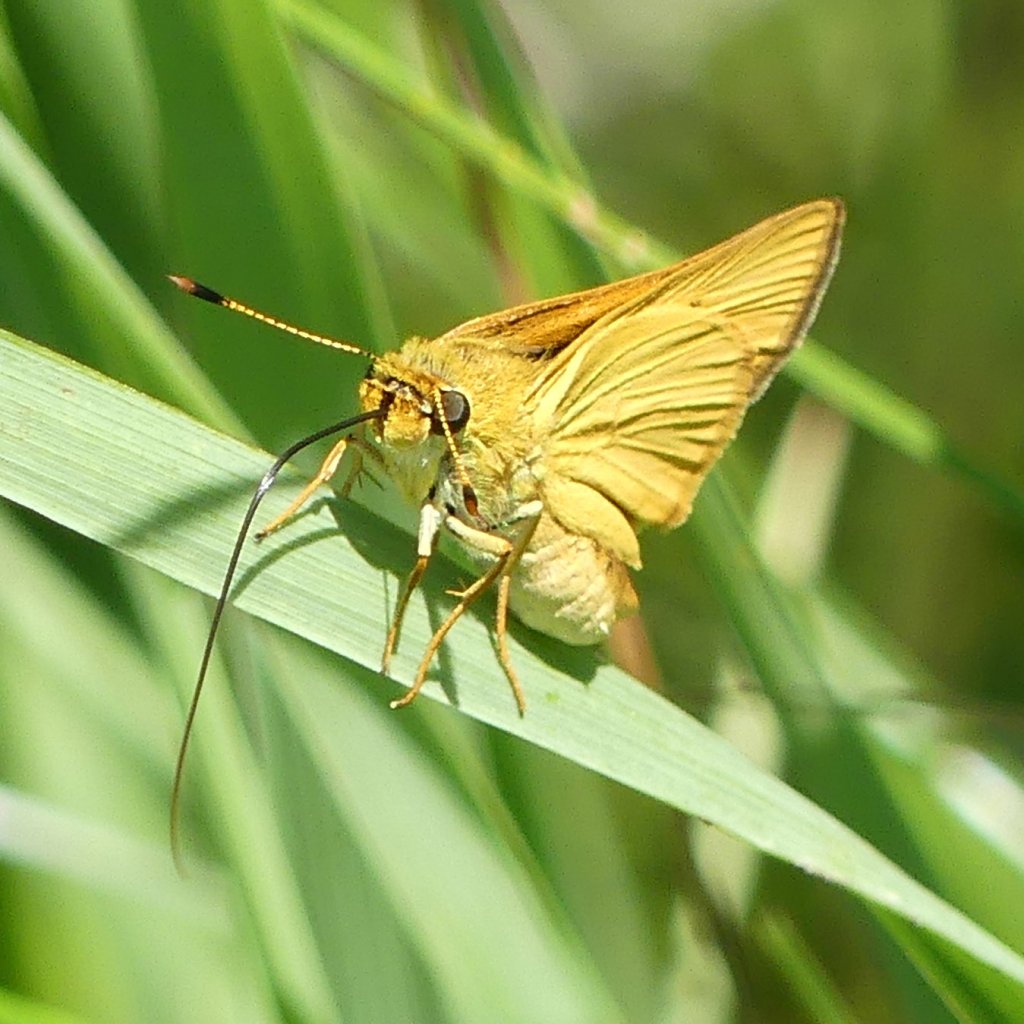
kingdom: Animalia
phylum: Arthropoda
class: Insecta
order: Lepidoptera
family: Hesperiidae
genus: Atrytone
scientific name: Atrytone delaware
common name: Delaware Skipper
